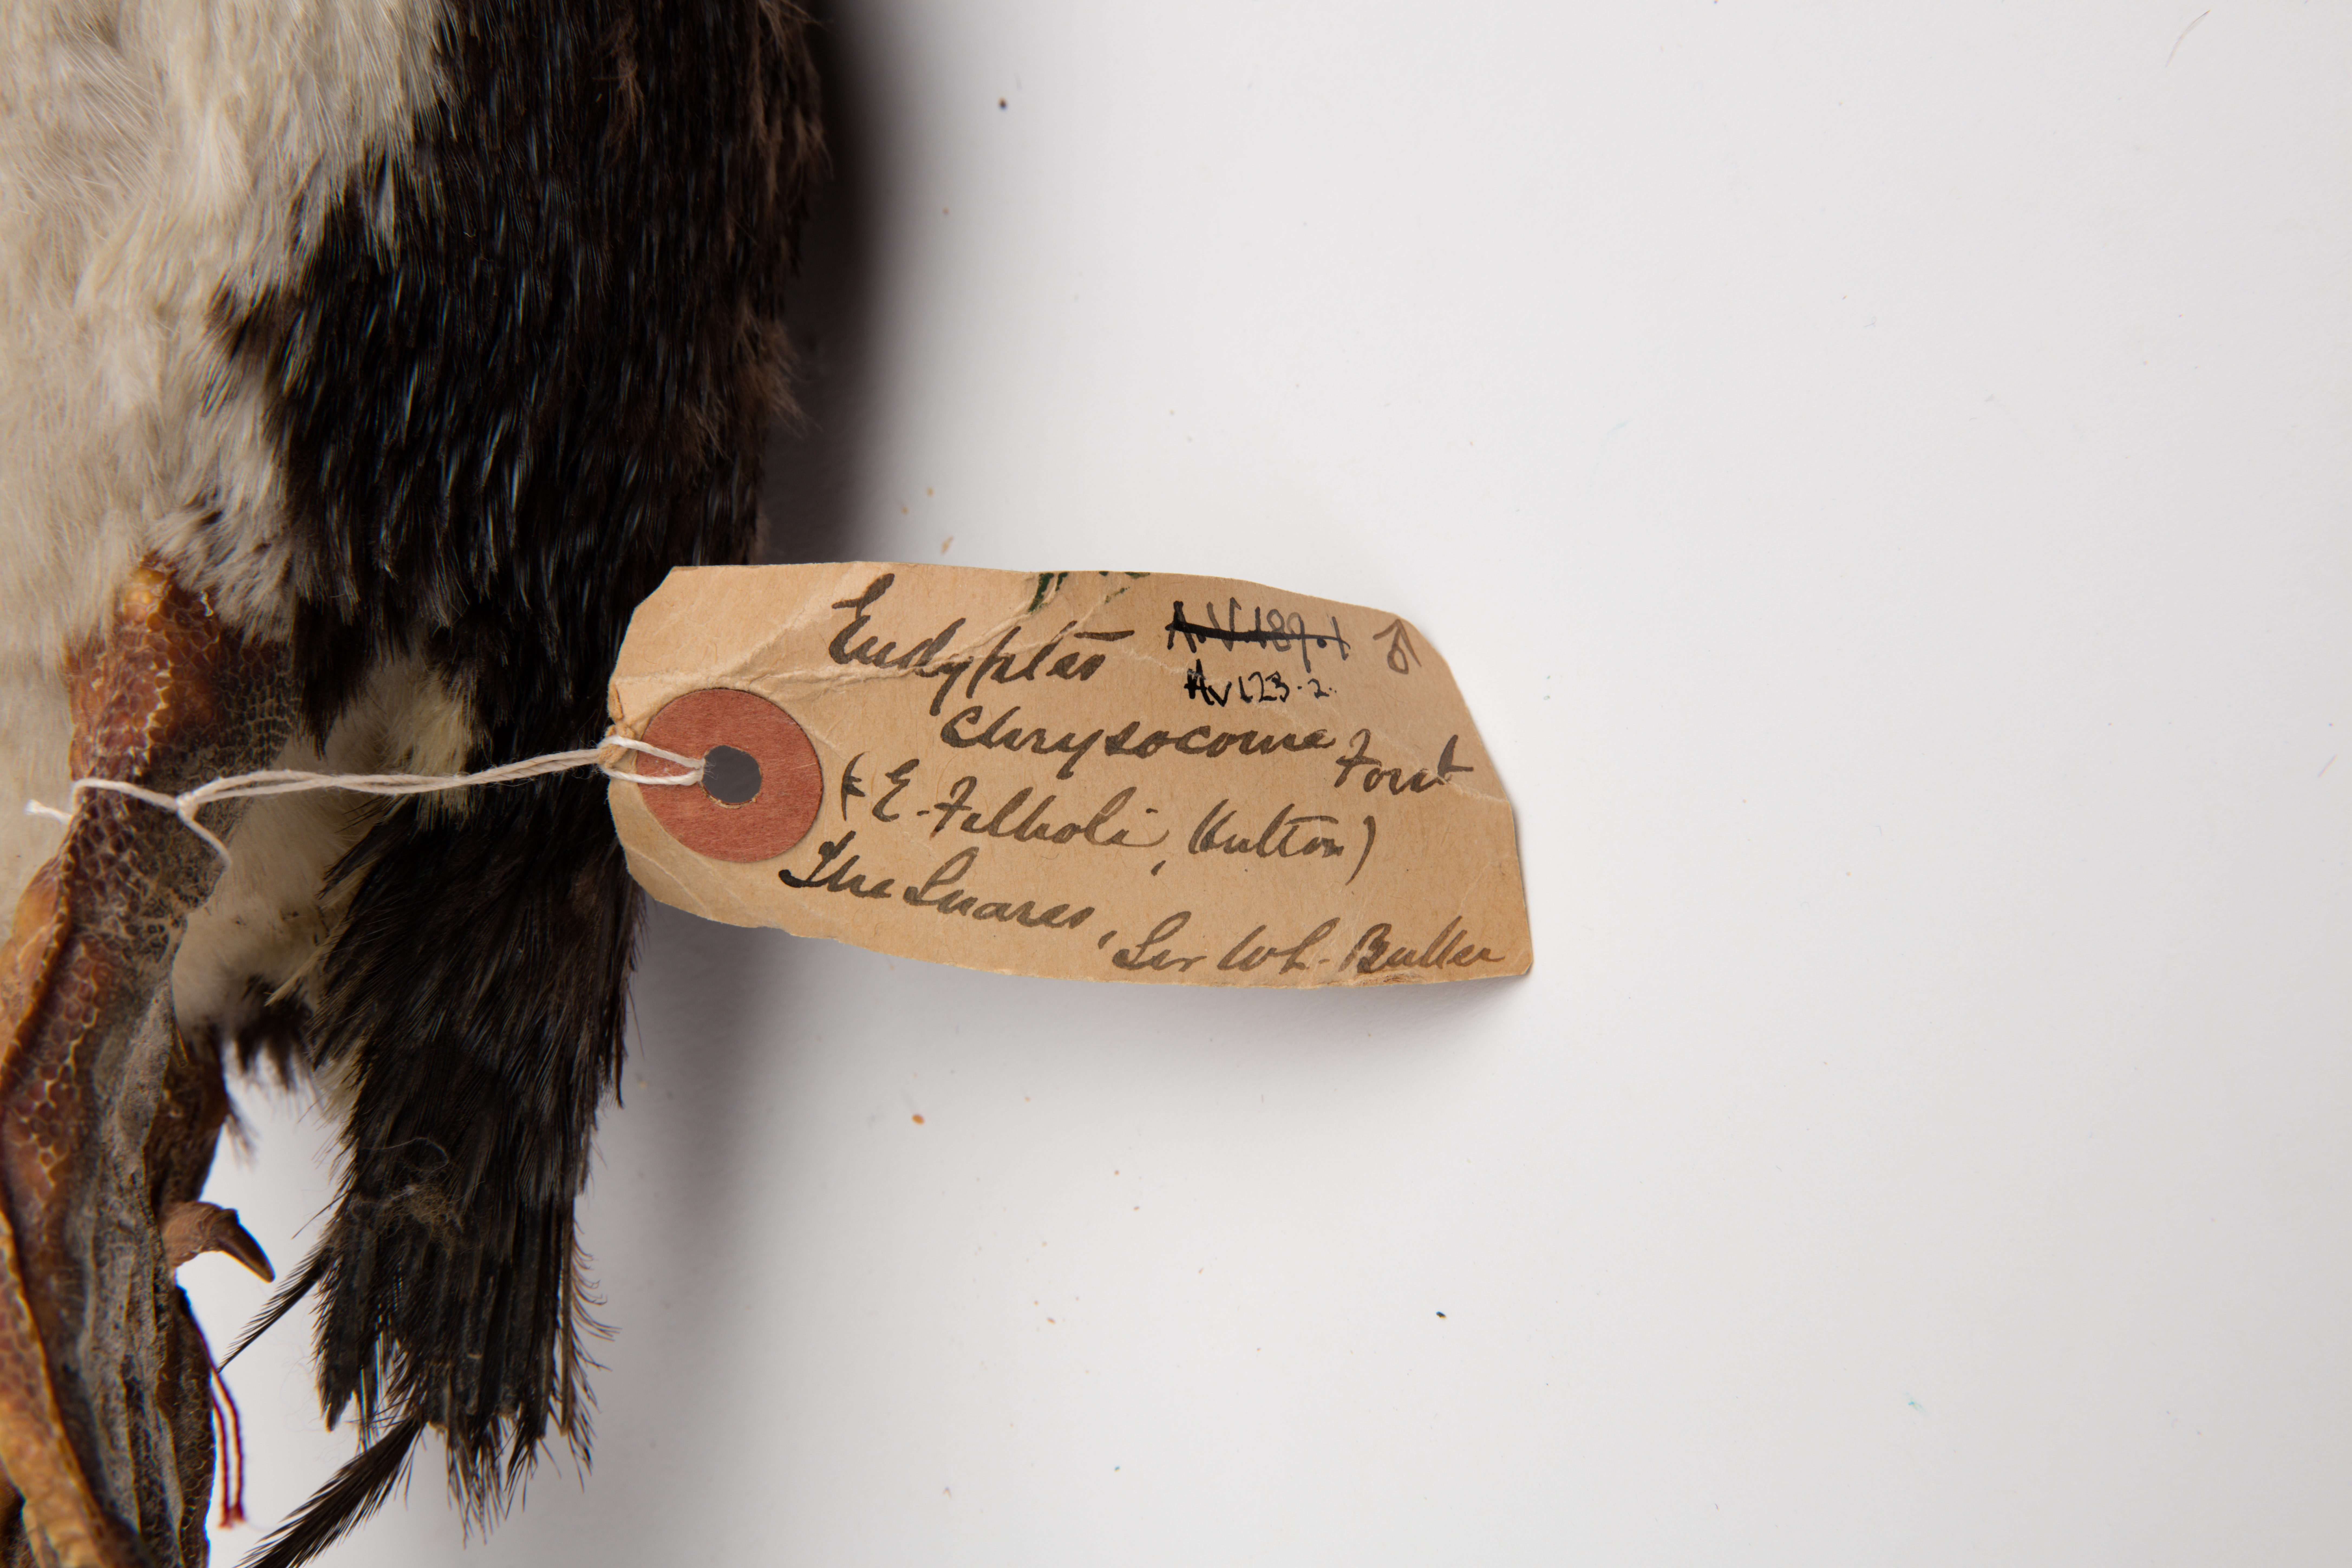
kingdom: Animalia
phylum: Chordata
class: Aves
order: Sphenisciformes
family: Spheniscidae
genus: Eudyptes
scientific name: Eudyptes chrysocome
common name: Southern rockhopper penguin
